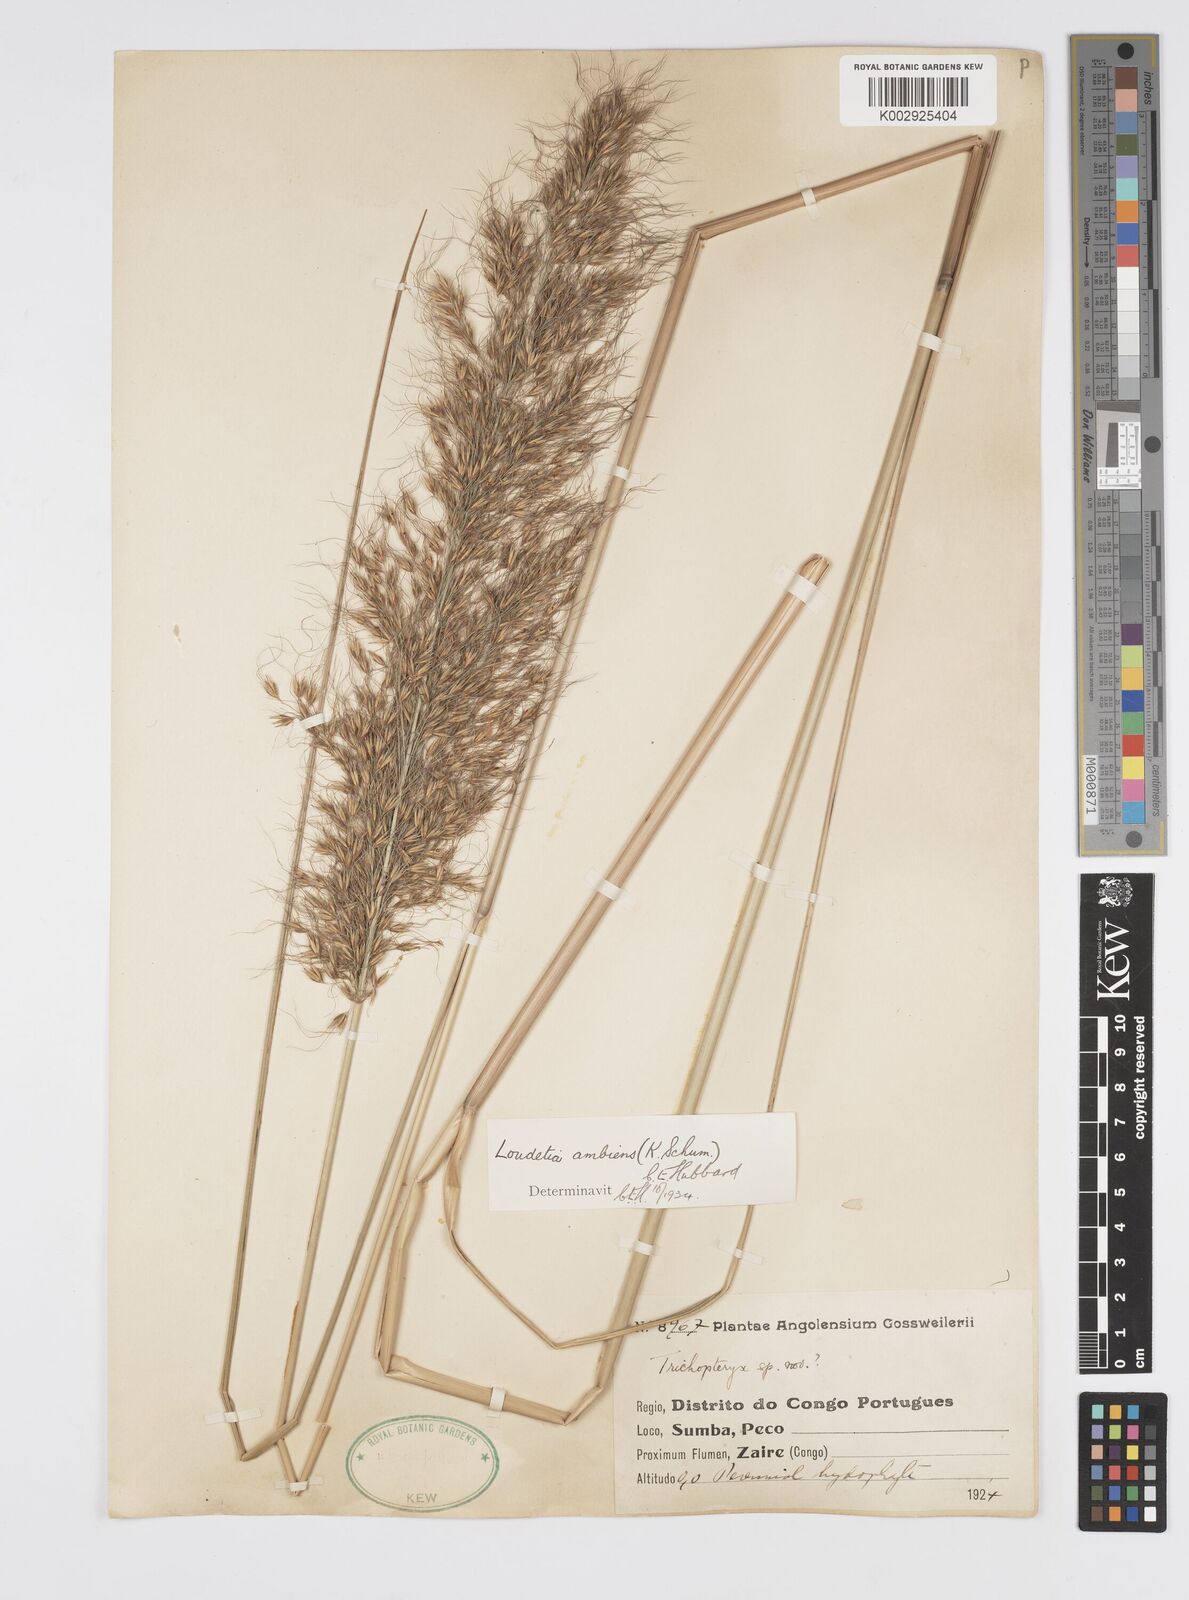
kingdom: Plantae
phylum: Tracheophyta
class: Liliopsida
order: Poales
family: Poaceae
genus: Loudetiopsis
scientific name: Loudetiopsis ambiens
